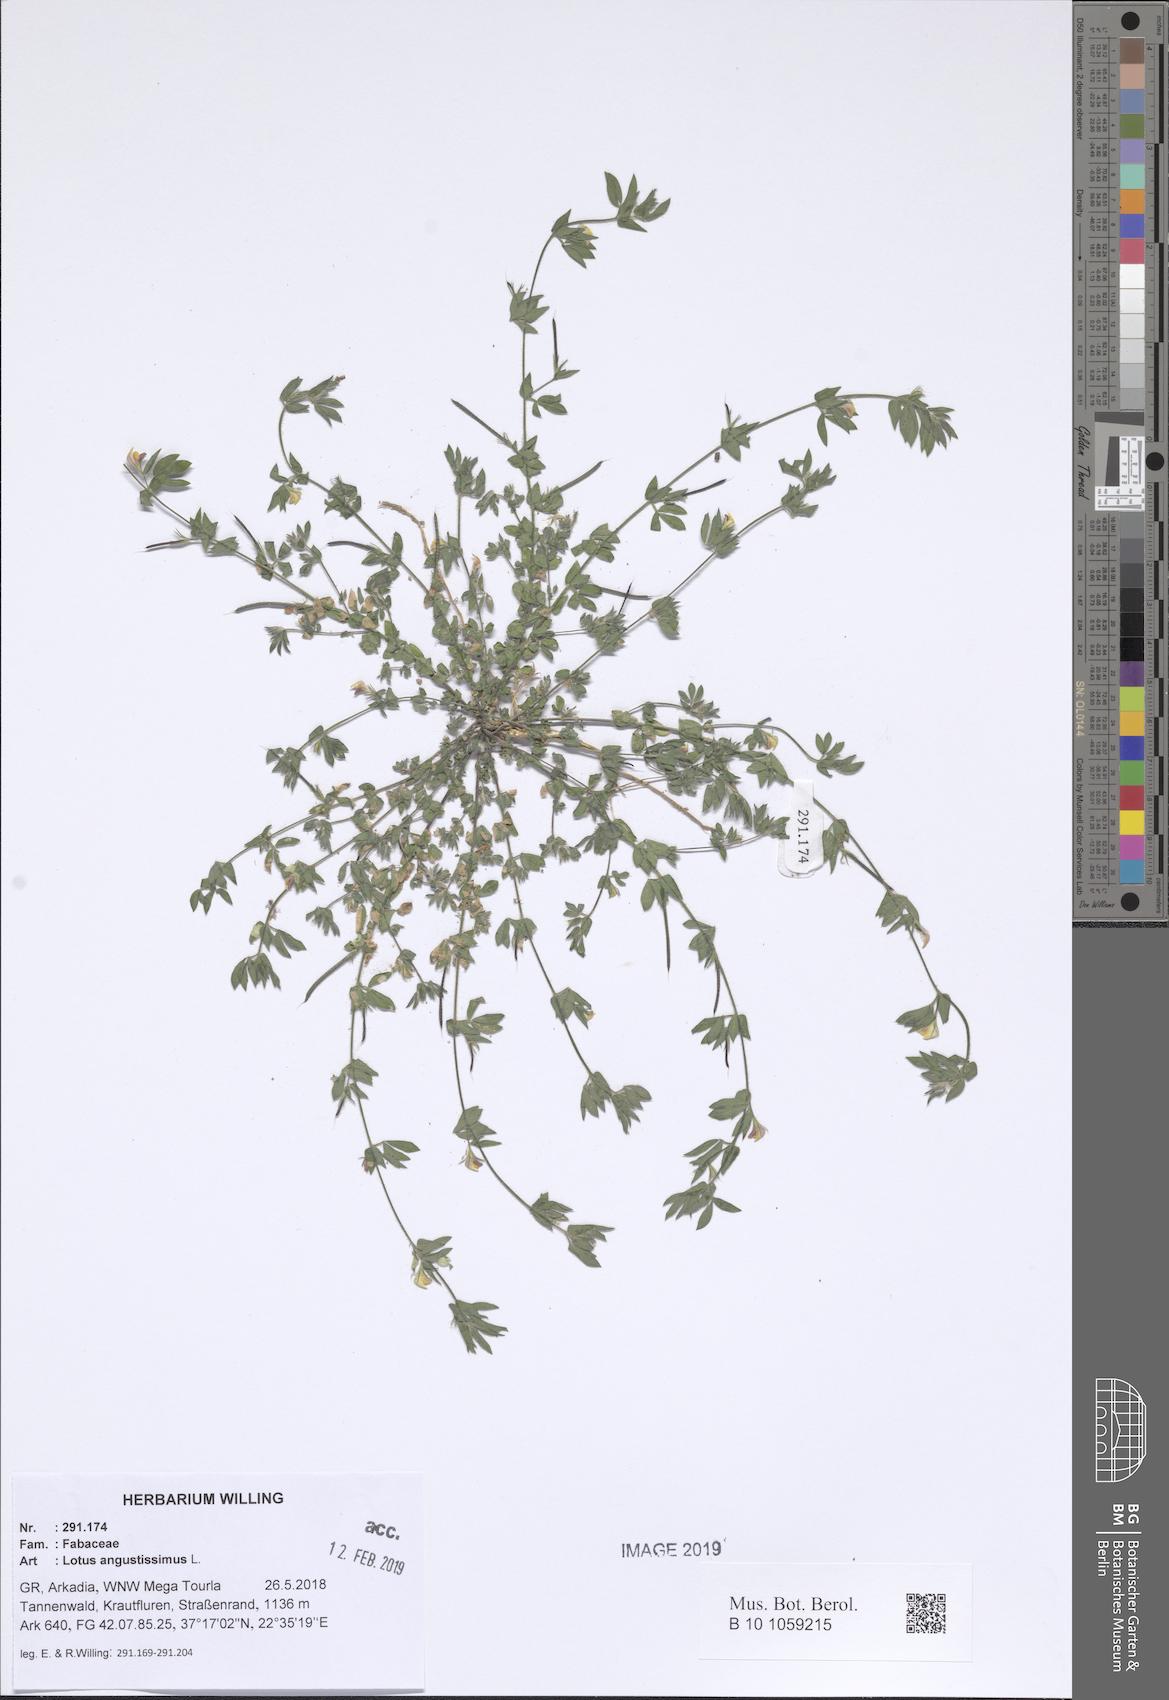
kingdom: Plantae
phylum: Tracheophyta
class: Magnoliopsida
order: Fabales
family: Fabaceae
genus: Lotus
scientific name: Lotus angustissimus
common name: Slender bird's-foot trefoil
